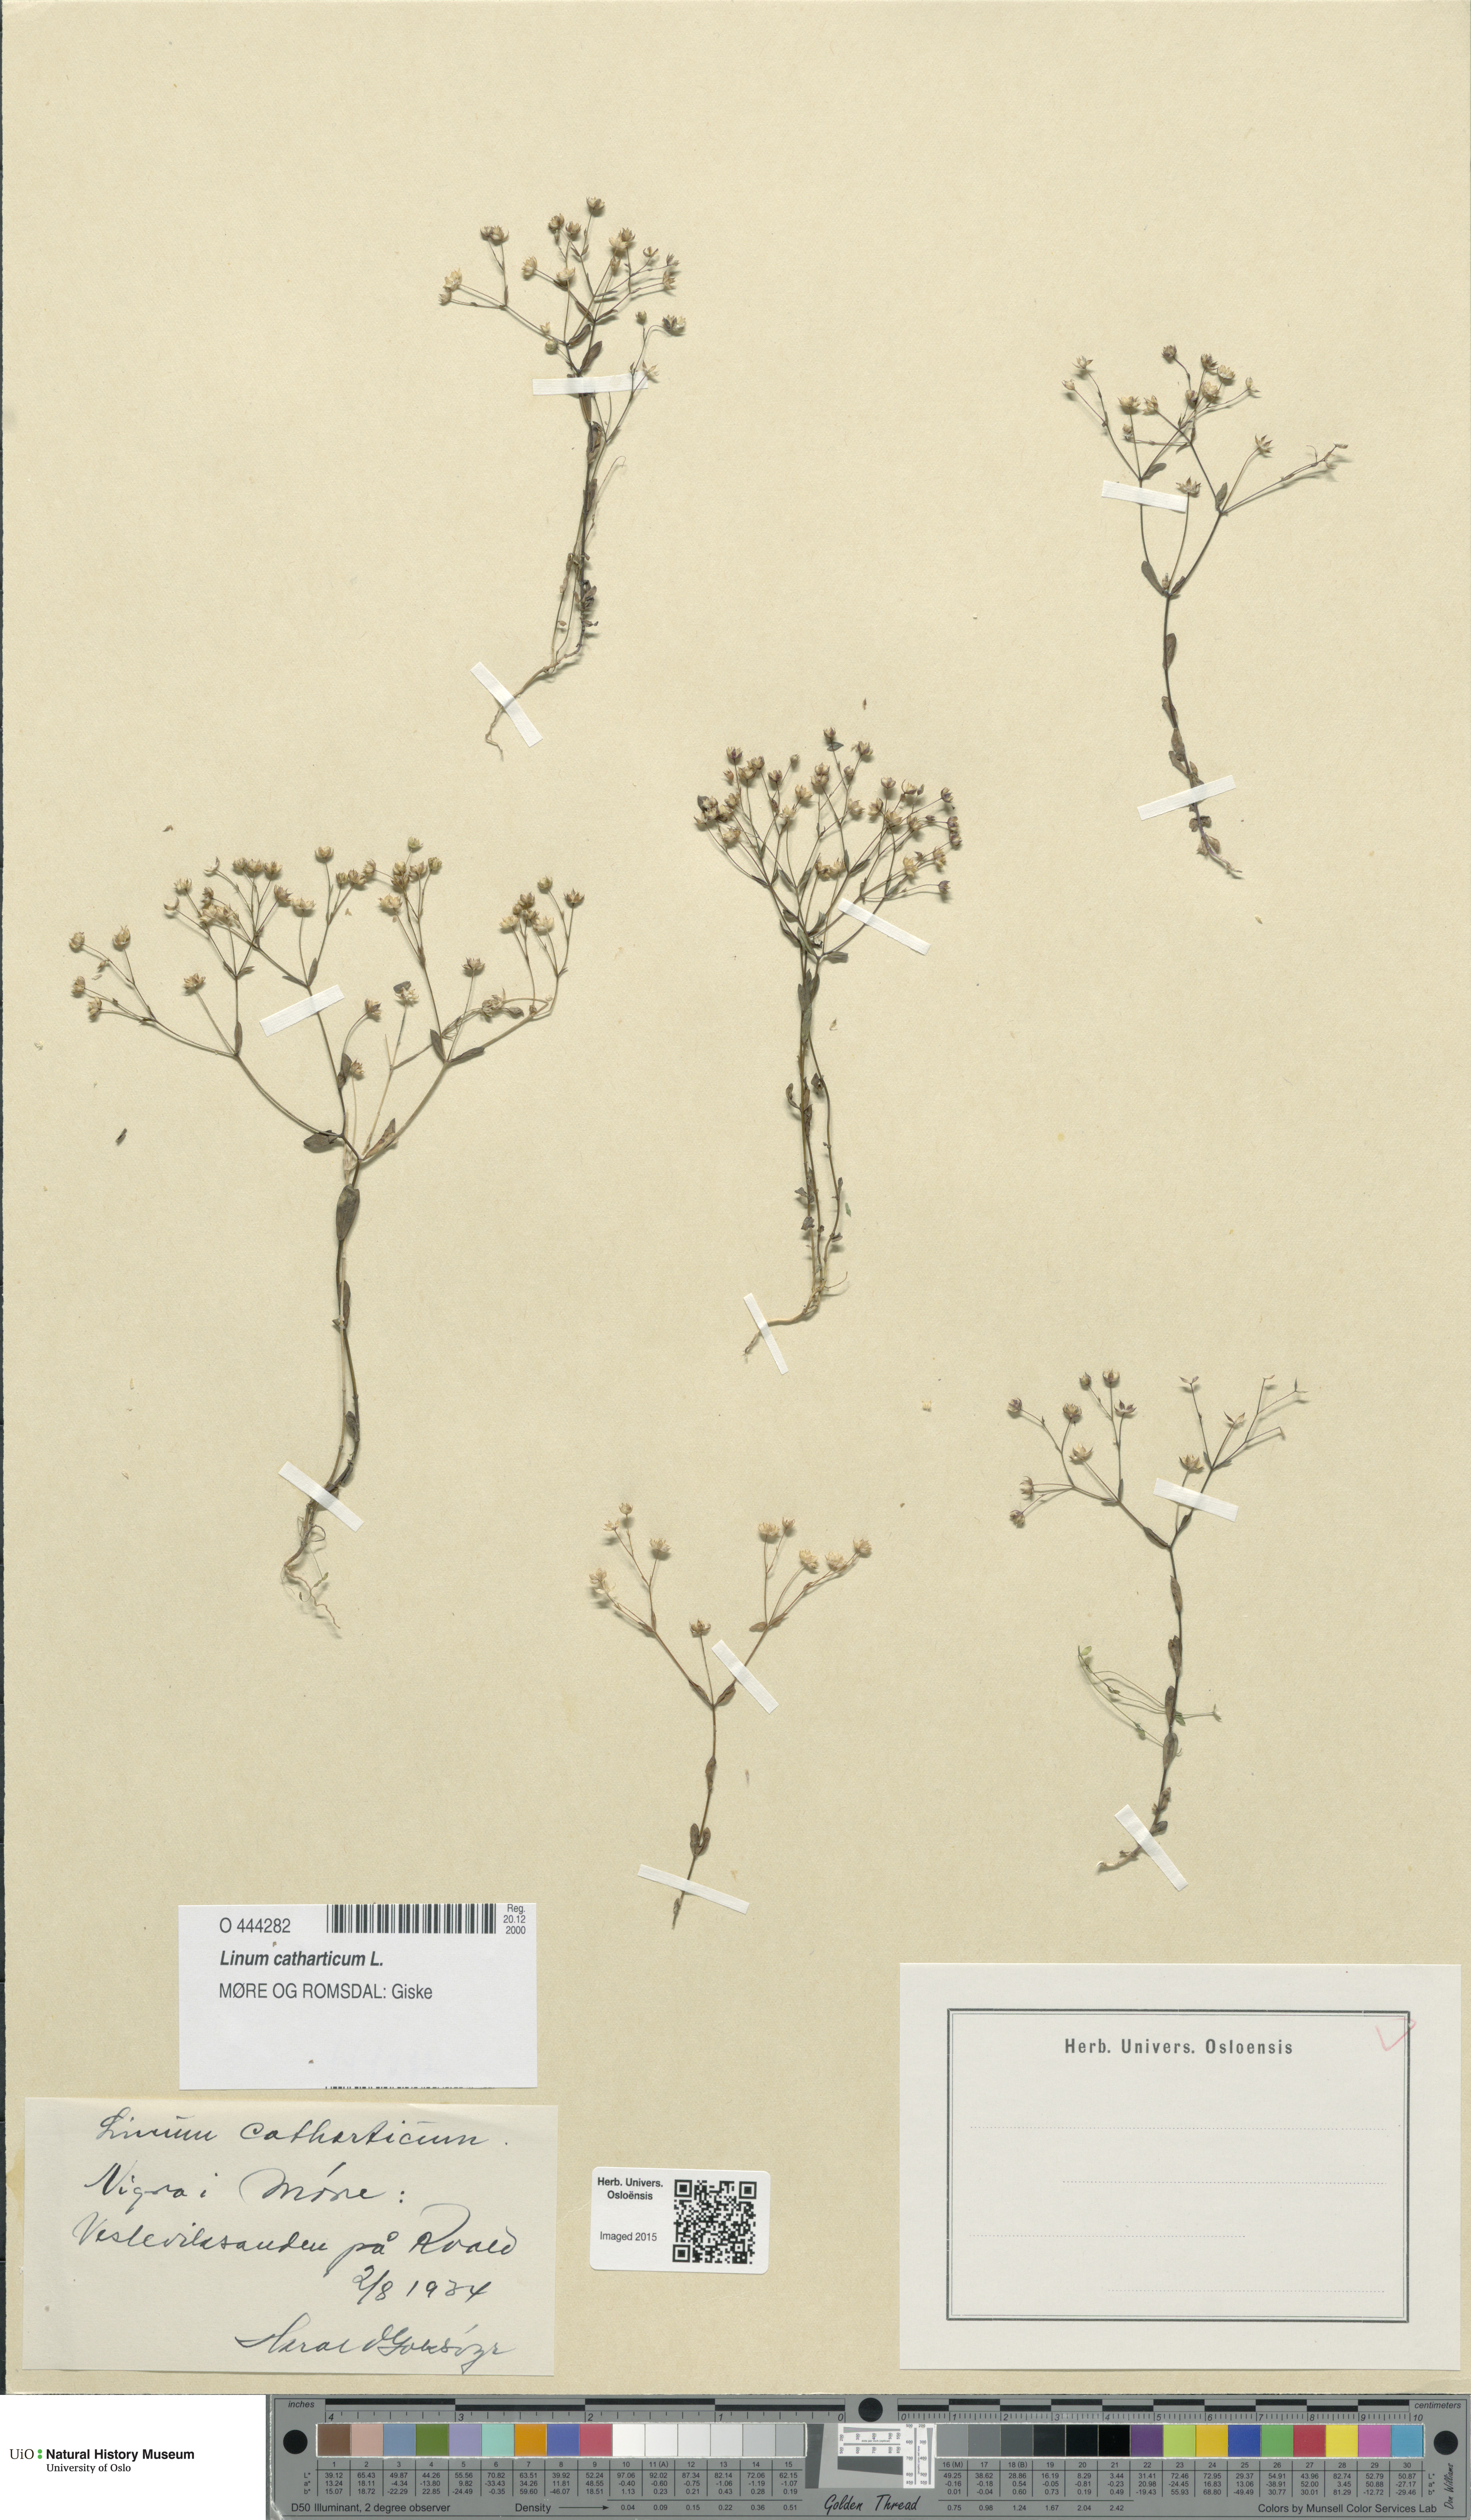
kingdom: Plantae
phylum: Tracheophyta
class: Magnoliopsida
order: Malpighiales
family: Linaceae
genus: Linum
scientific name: Linum catharticum
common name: Fairy flax
